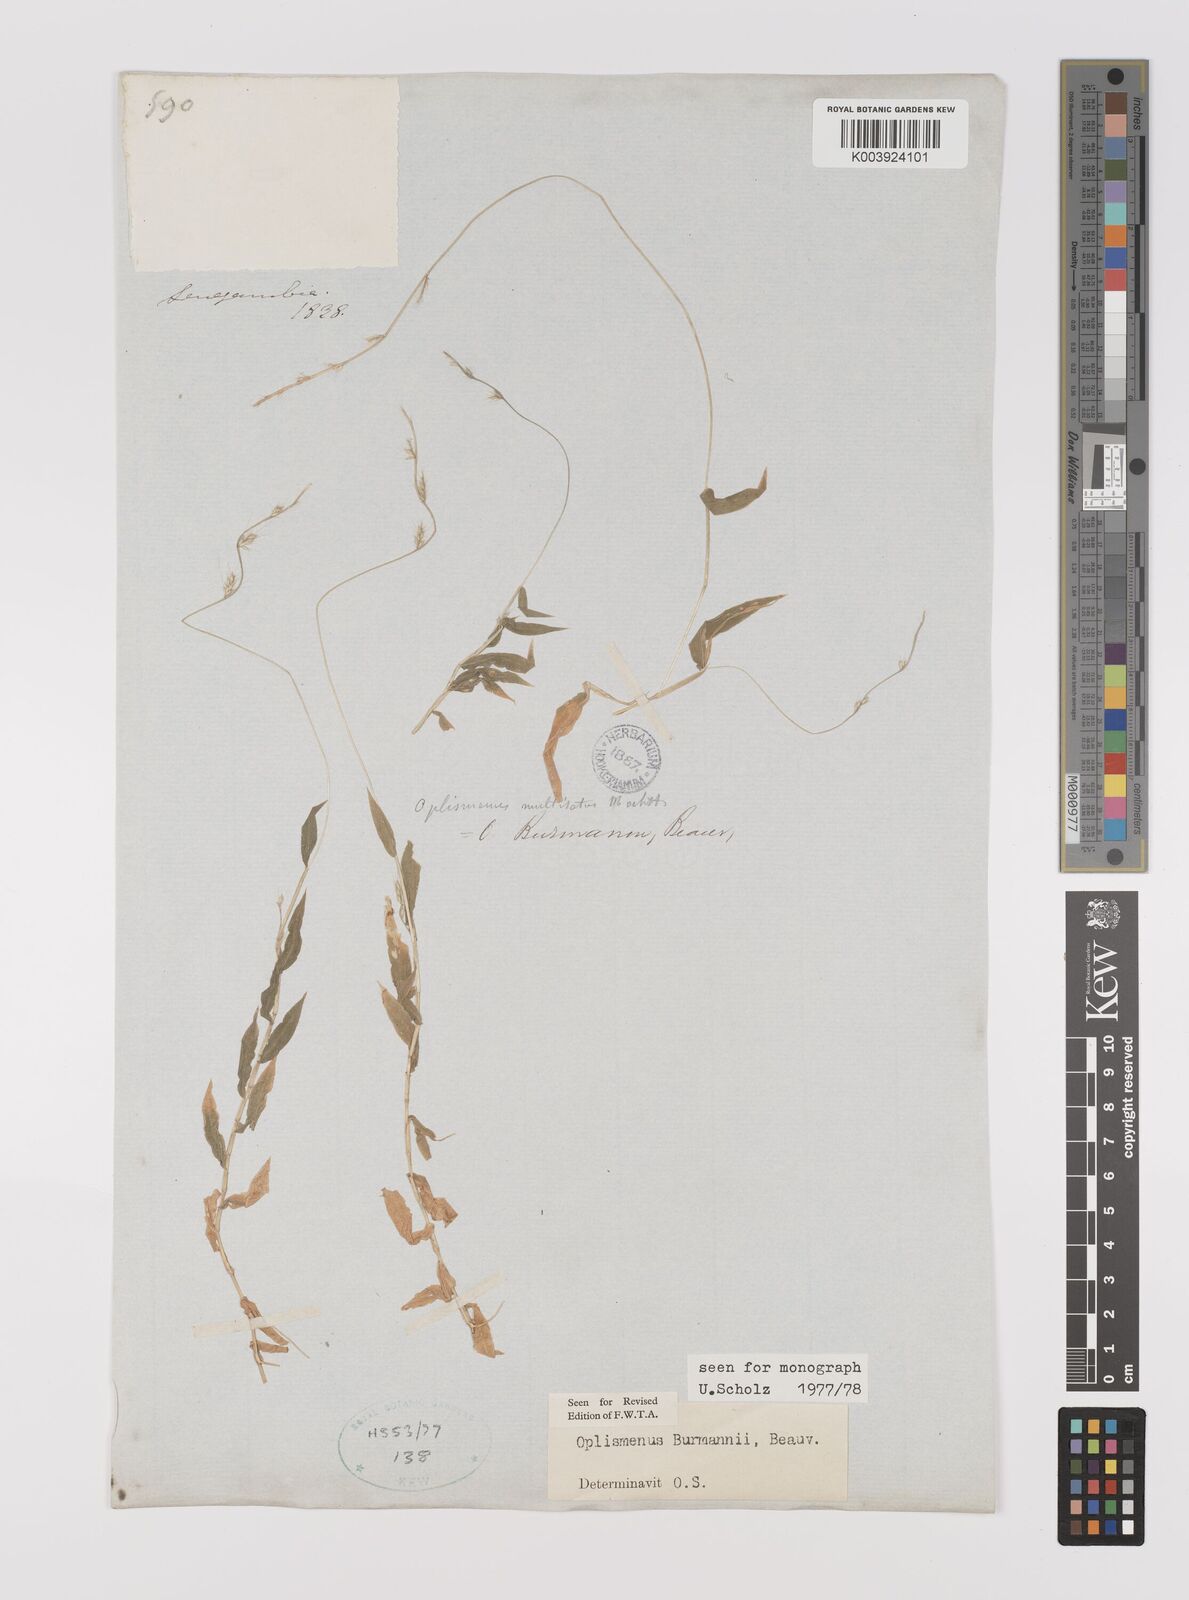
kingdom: Plantae
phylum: Tracheophyta
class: Liliopsida
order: Poales
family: Poaceae
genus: Oplismenus
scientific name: Oplismenus burmanni
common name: Burmann's basketgrass
